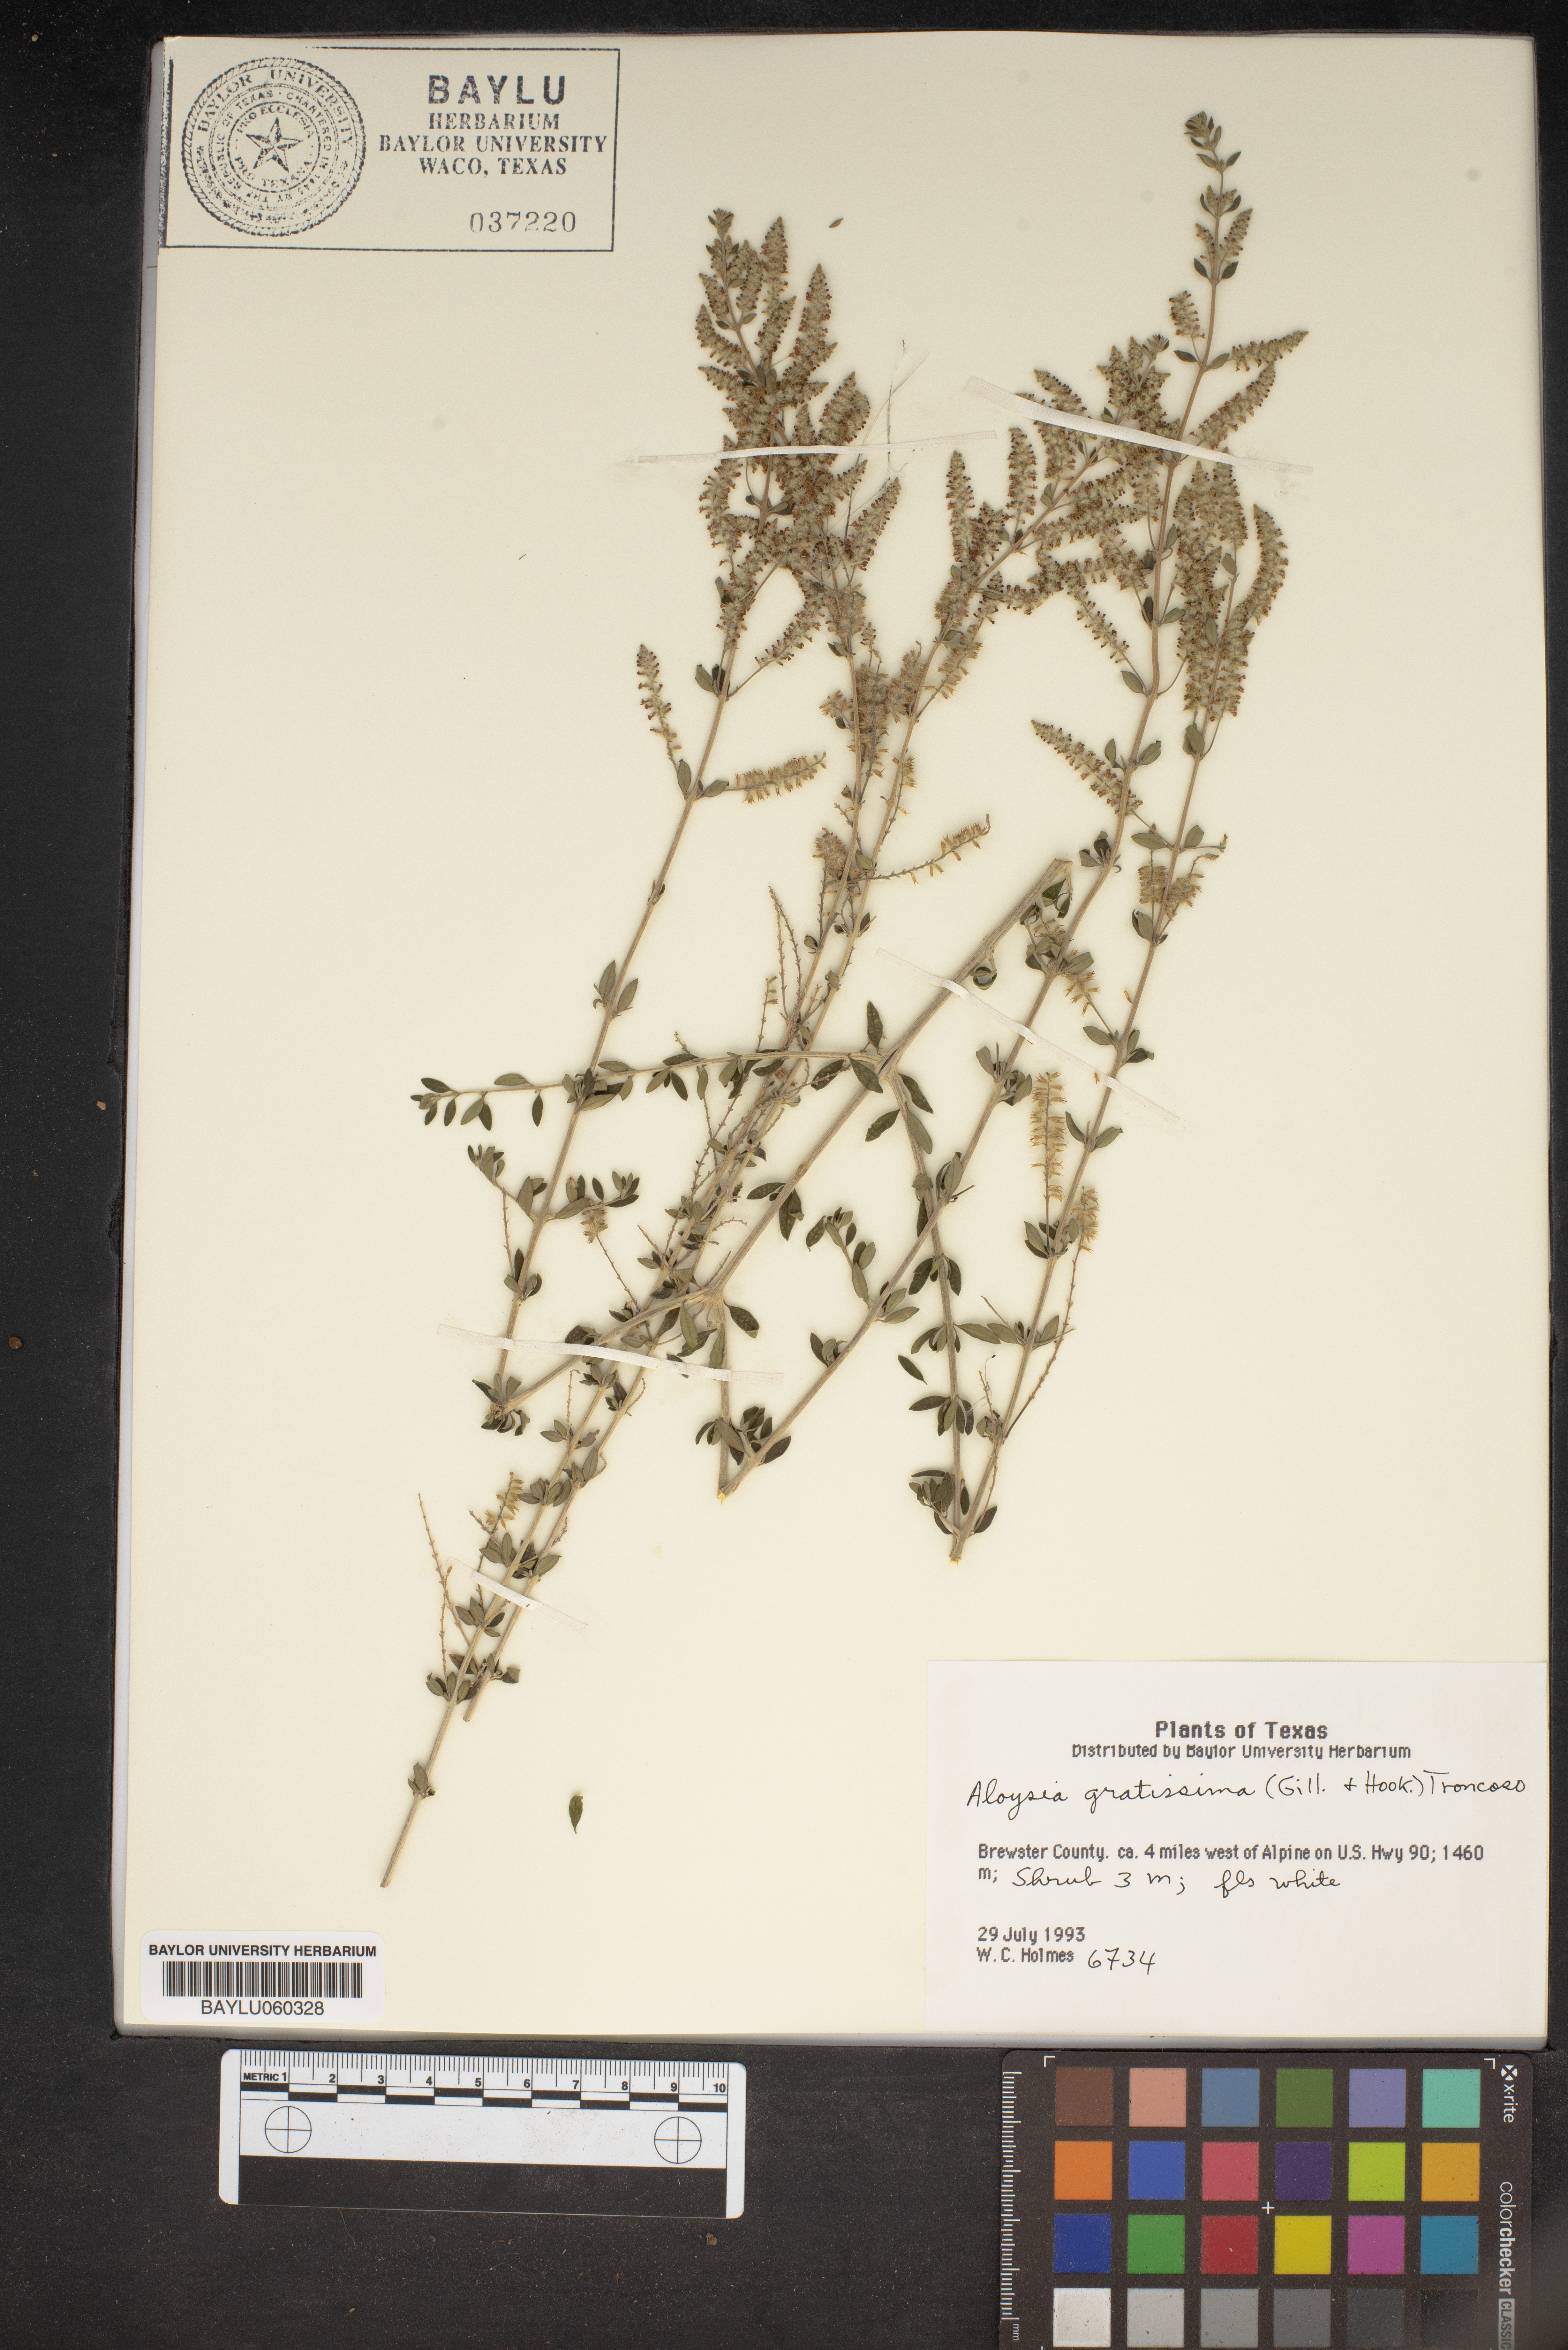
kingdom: Plantae
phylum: Tracheophyta
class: Magnoliopsida
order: Lamiales
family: Verbenaceae
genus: Aloysia
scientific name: Aloysia gratissima
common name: Common bee-brush
